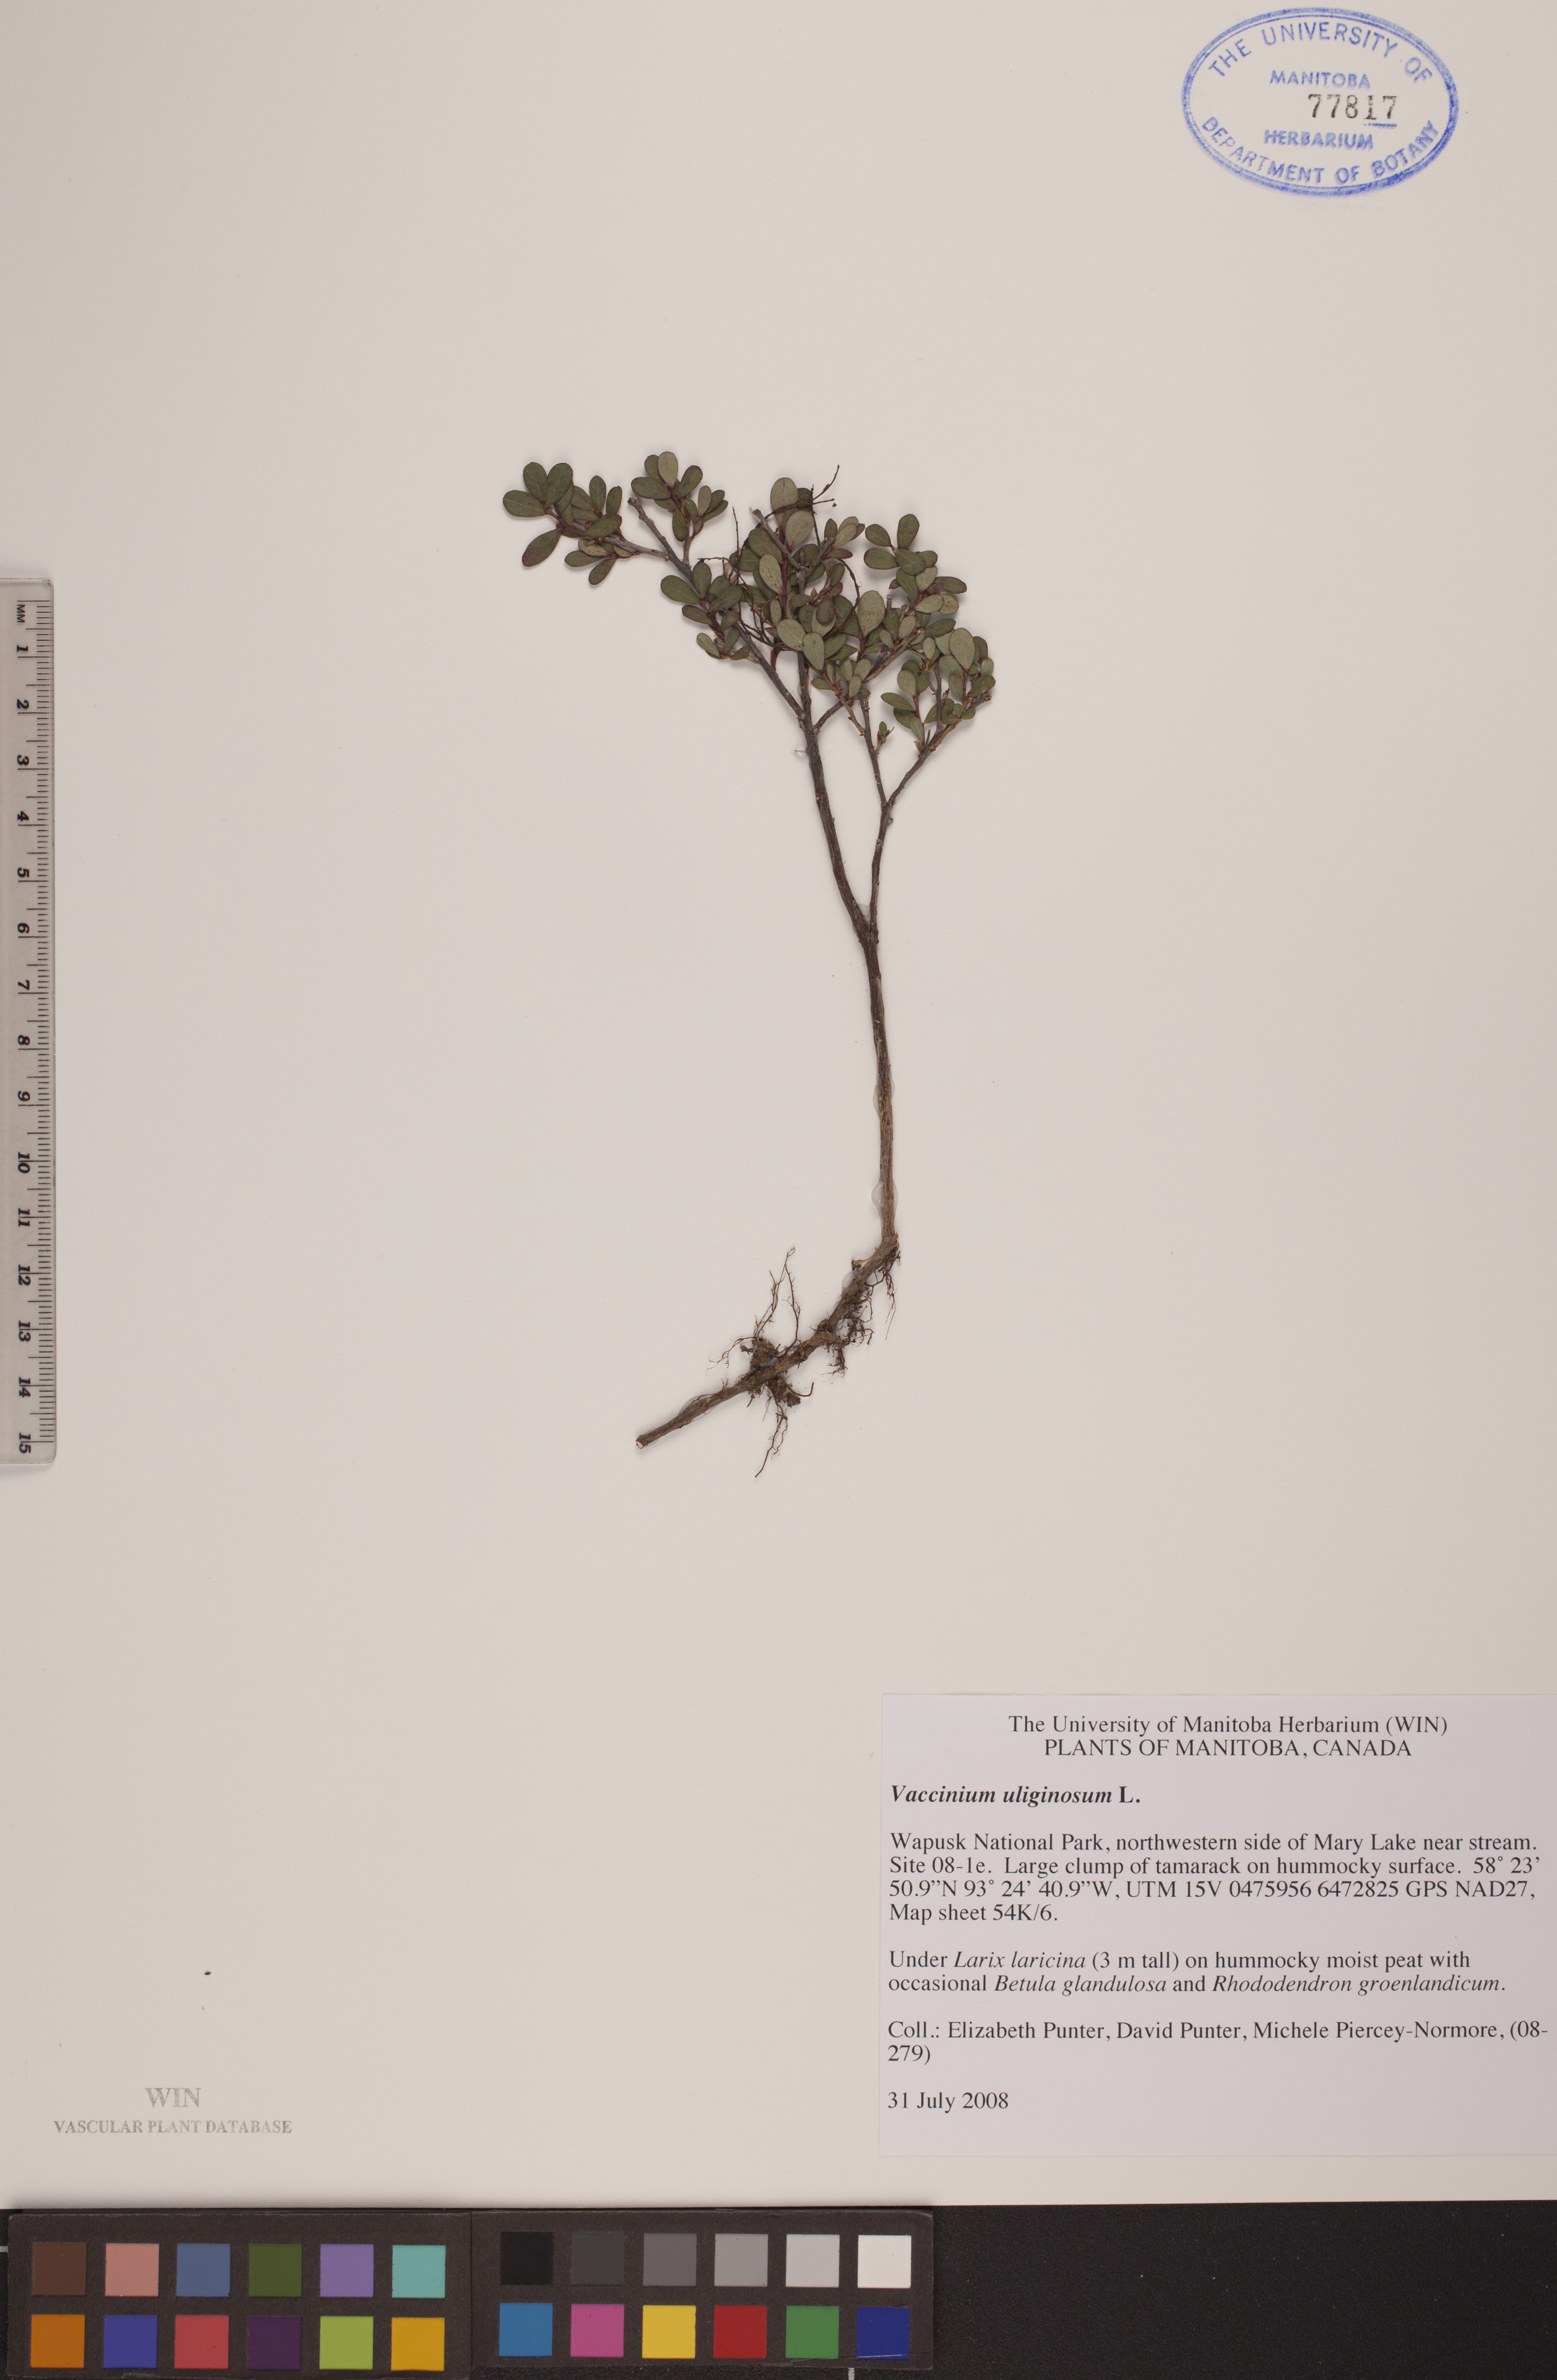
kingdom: Plantae
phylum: Tracheophyta
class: Magnoliopsida
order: Ericales
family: Ericaceae
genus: Vaccinium
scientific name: Vaccinium uliginosum
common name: Bog bilberry
